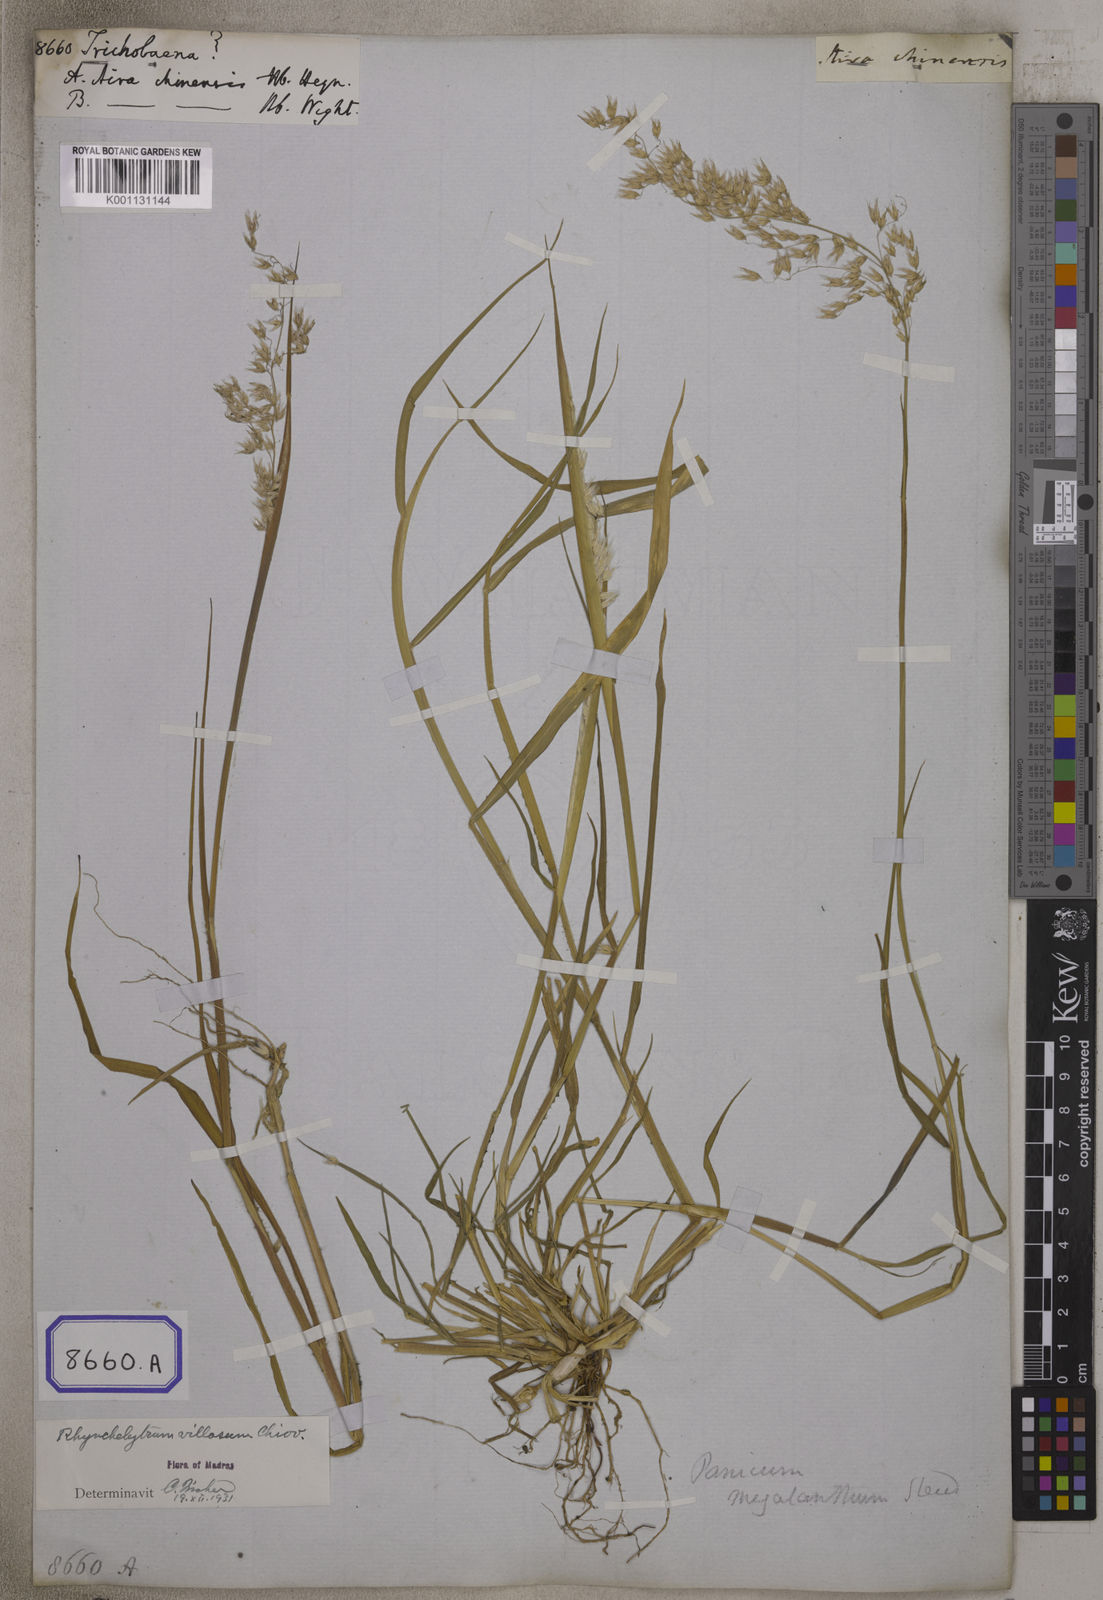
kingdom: Plantae
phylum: Tracheophyta
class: Liliopsida
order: Poales
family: Poaceae
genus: Tricholaena
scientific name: Tricholaena
